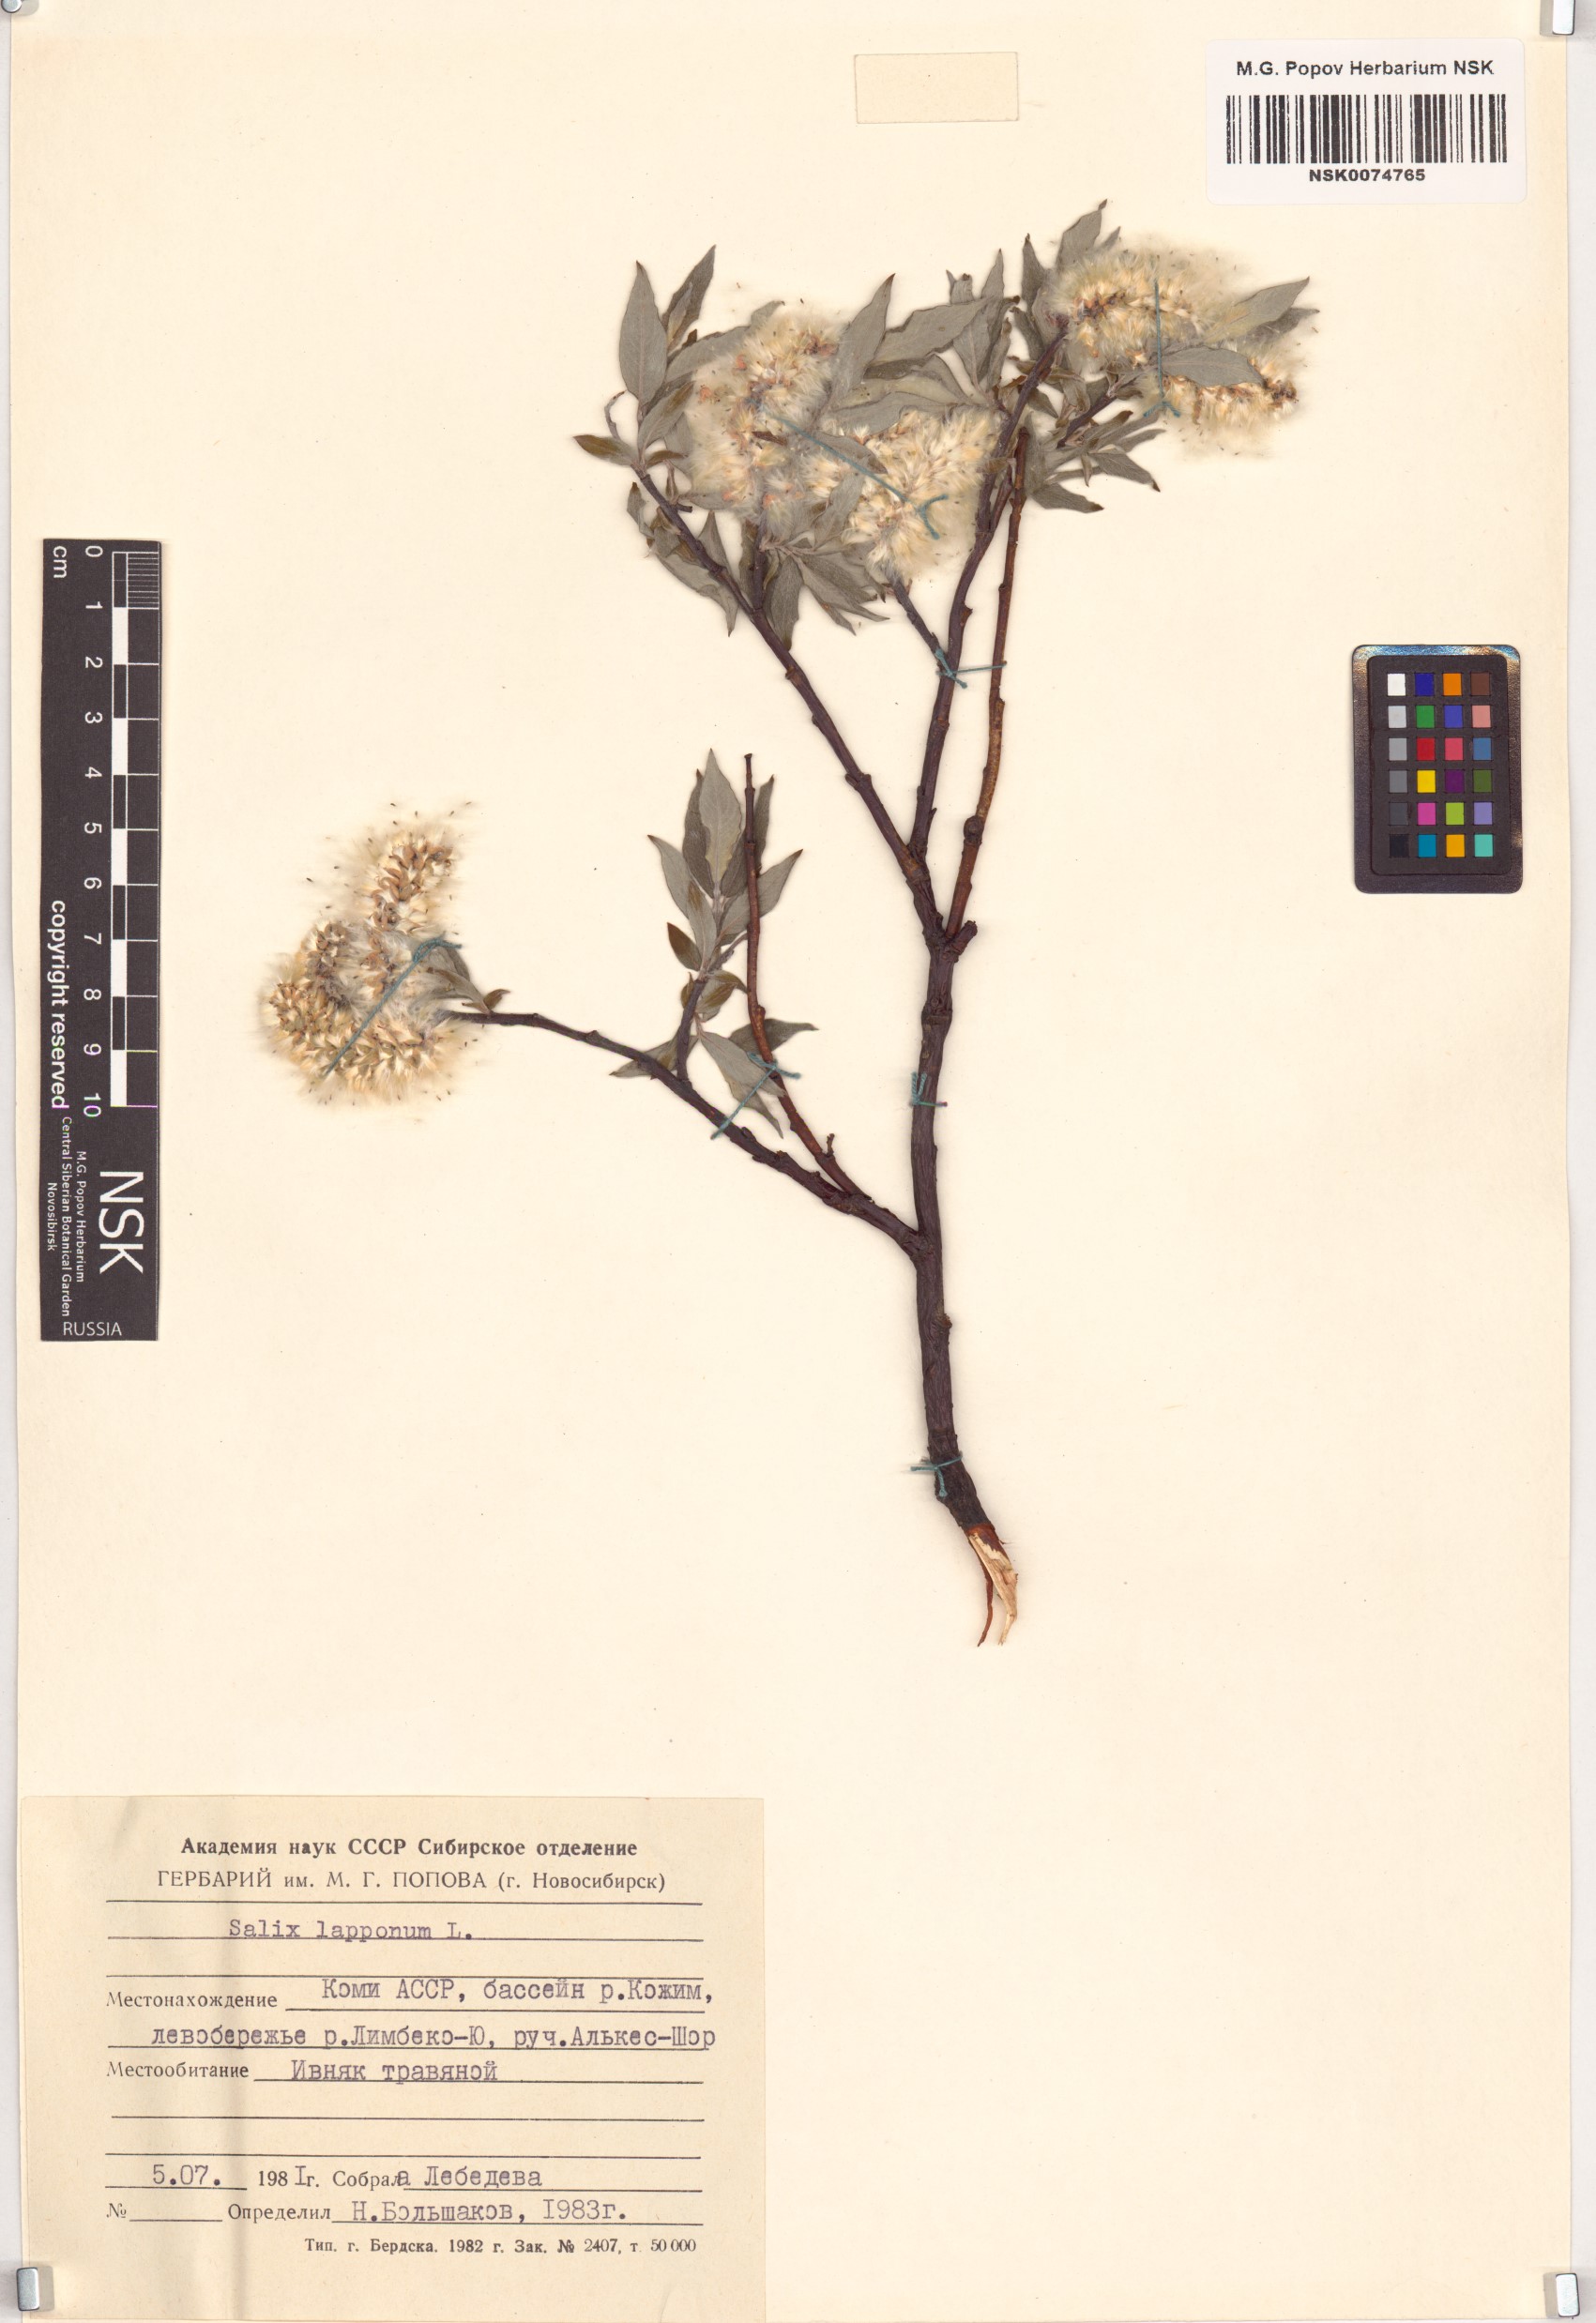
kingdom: Plantae
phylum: Tracheophyta
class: Magnoliopsida
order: Malpighiales
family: Salicaceae
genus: Salix
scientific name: Salix lapponum
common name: Downy willow
